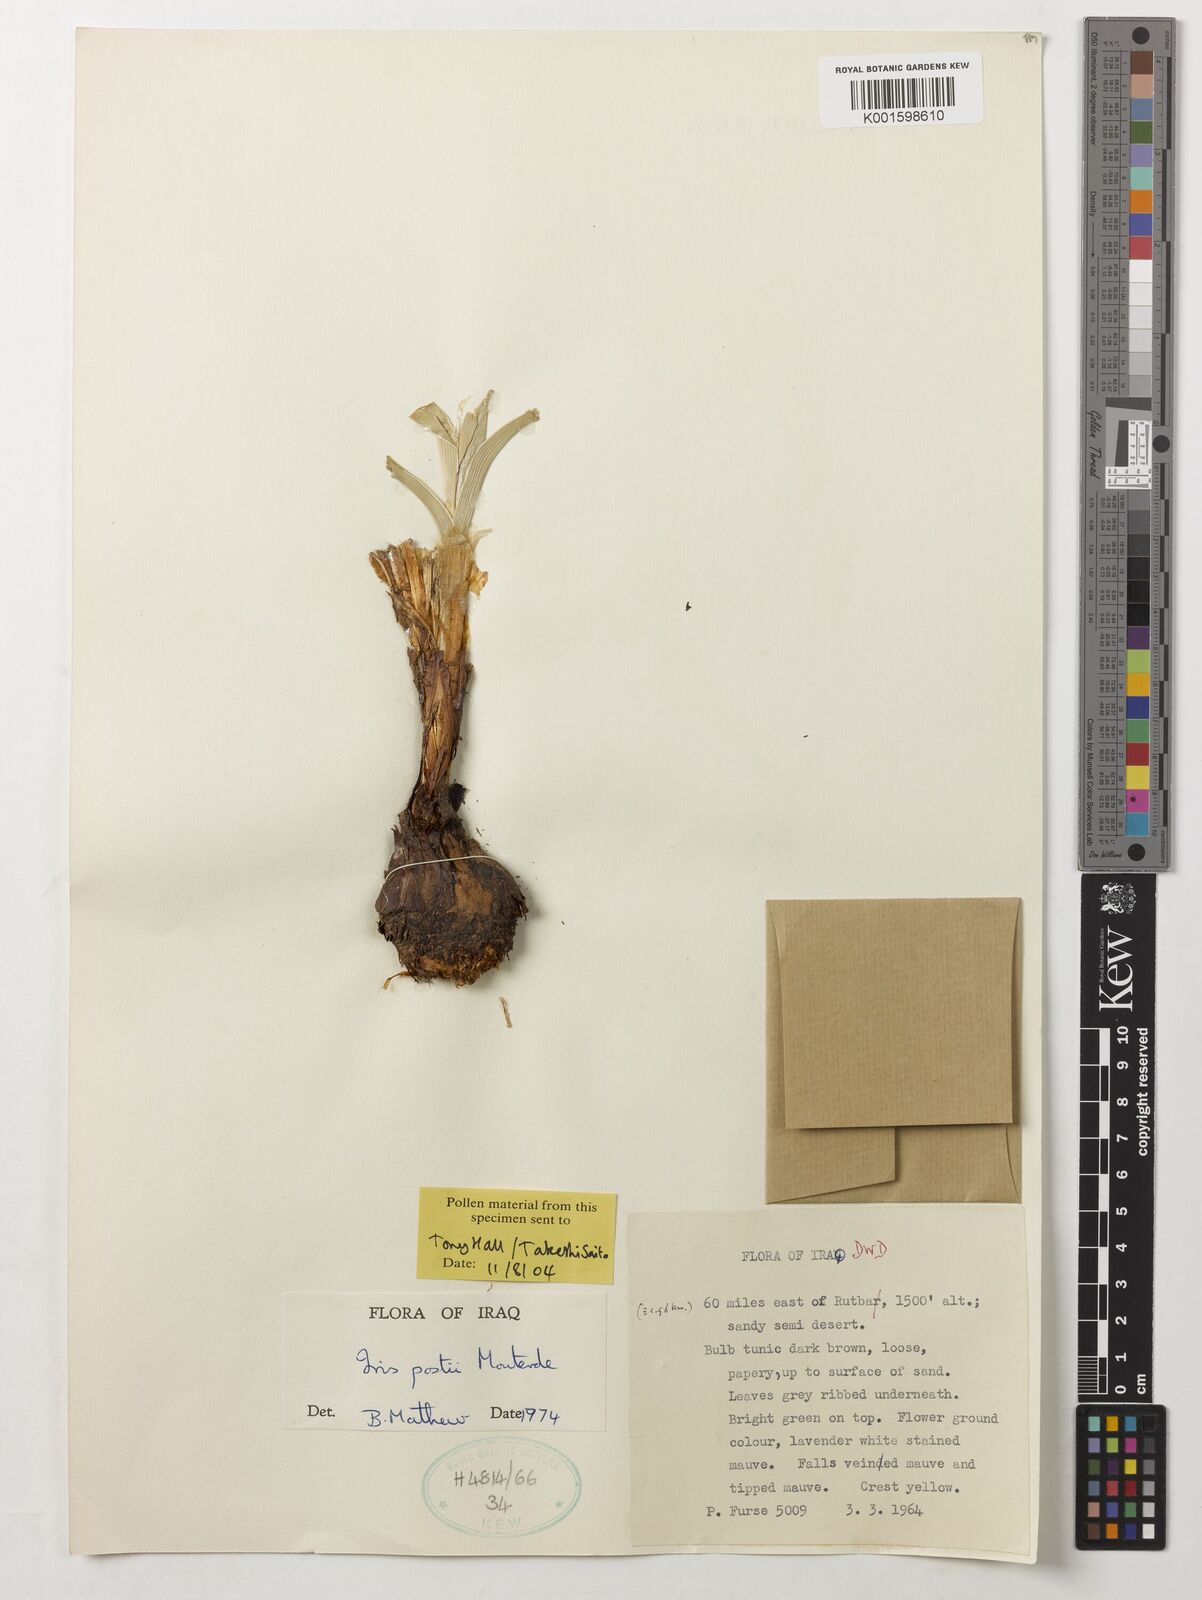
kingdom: Plantae
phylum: Tracheophyta
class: Liliopsida
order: Asparagales
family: Iridaceae
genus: Iris
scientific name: Iris postii
